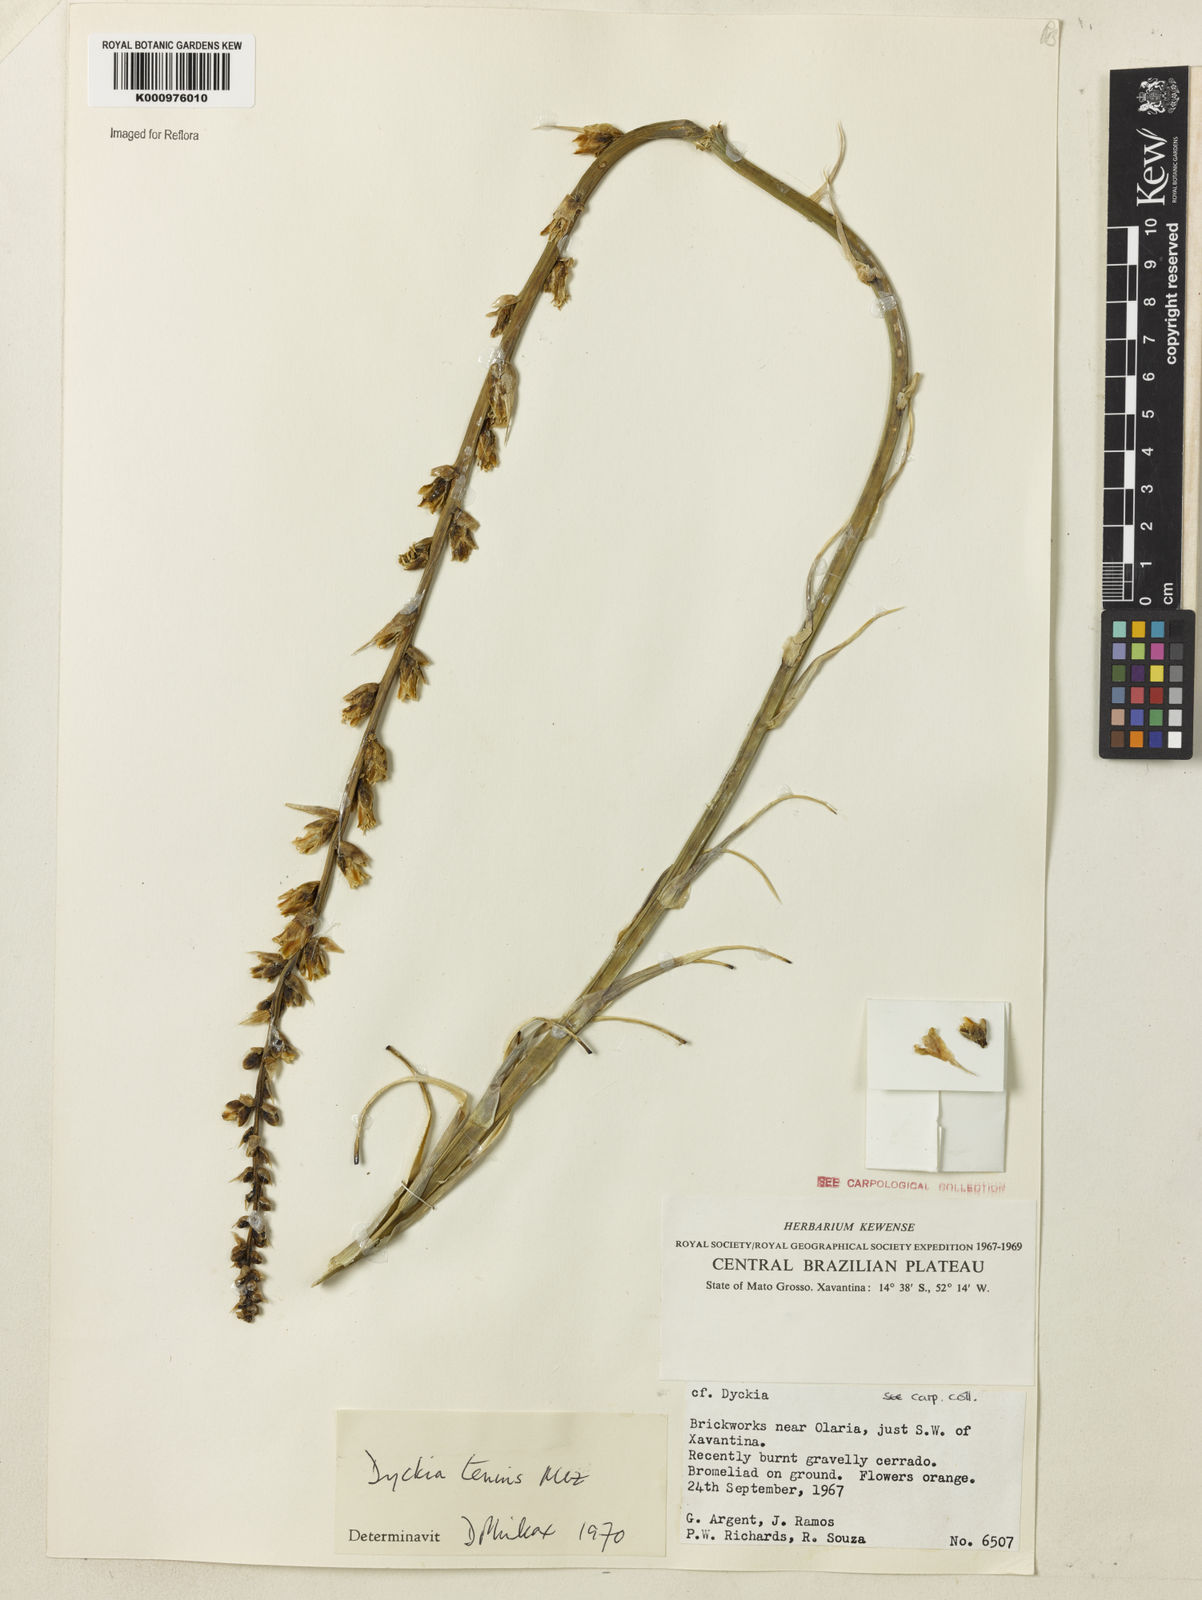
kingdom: Plantae
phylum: Tracheophyta
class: Liliopsida
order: Poales
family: Bromeliaceae
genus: Dyckia
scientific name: Dyckia tenuis
